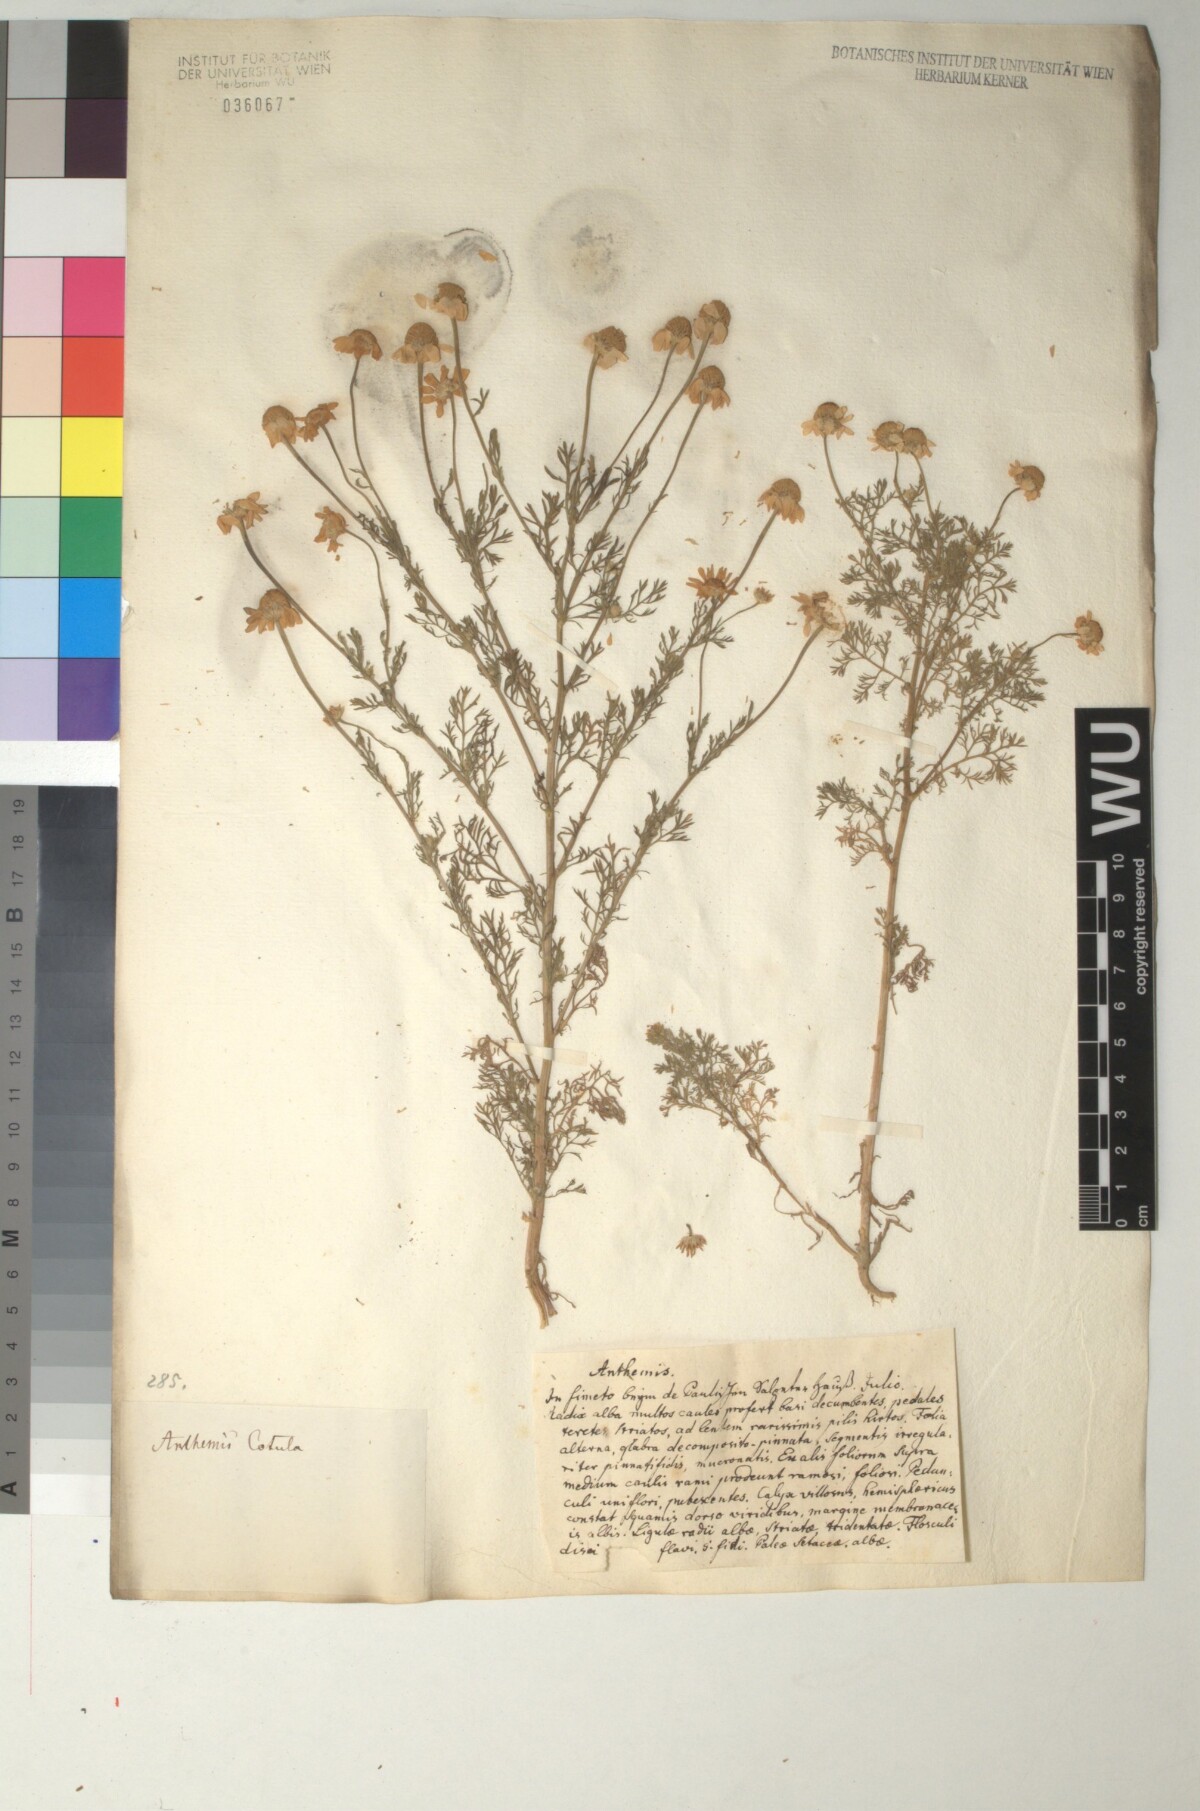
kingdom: Plantae
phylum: Tracheophyta
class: Magnoliopsida
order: Asterales
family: Asteraceae
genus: Anthemis
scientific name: Anthemis cotula
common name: Stinking chamomile
